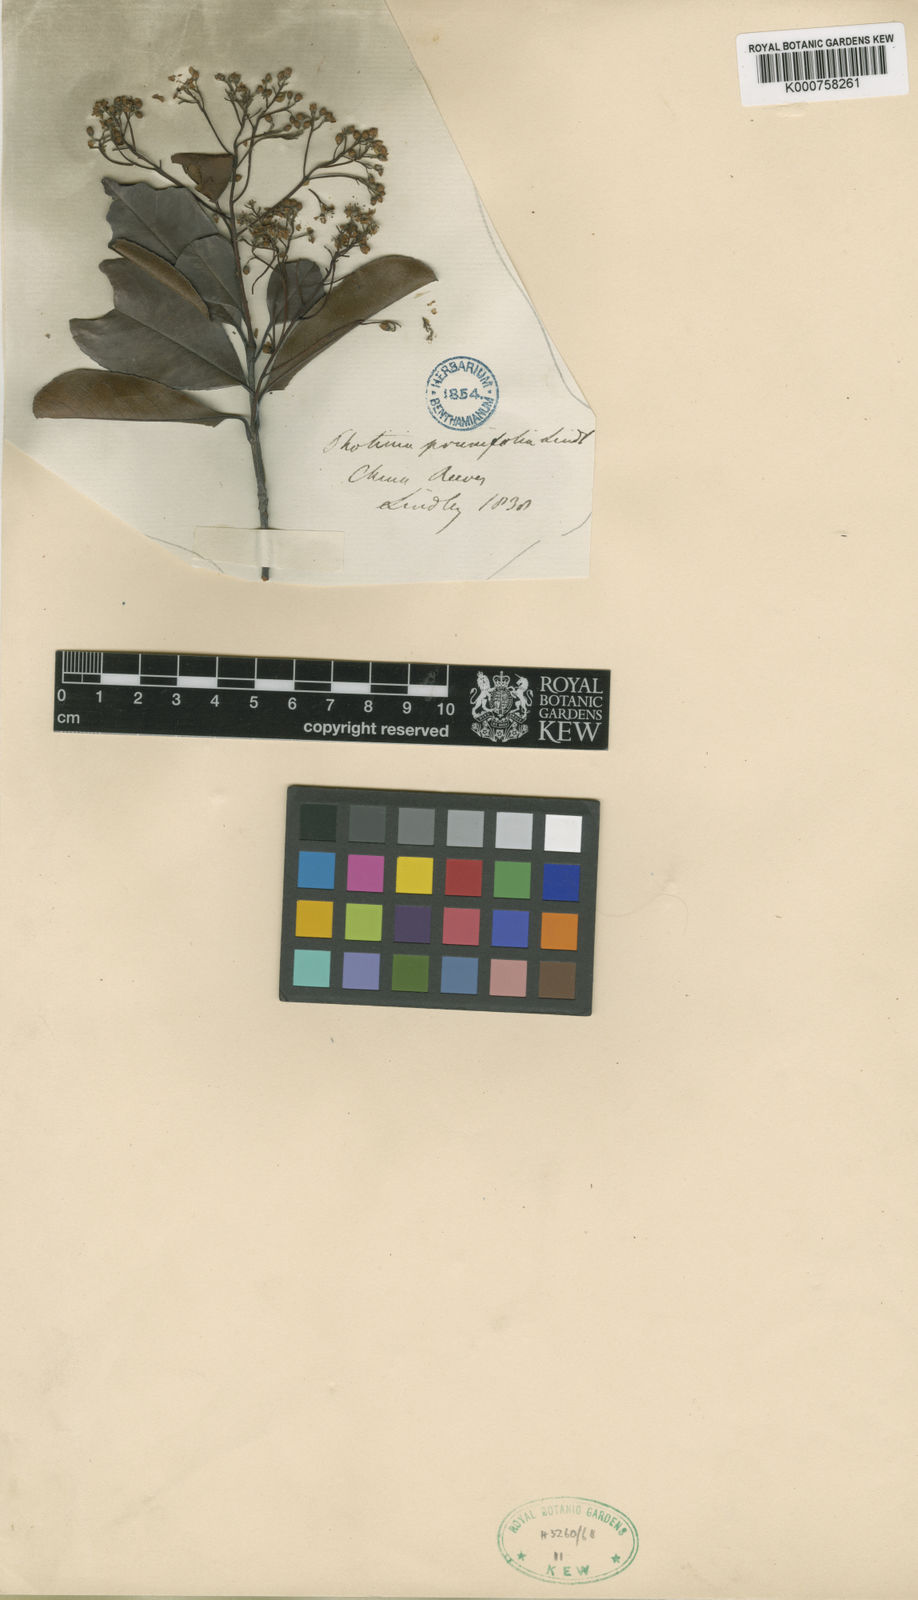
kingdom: Plantae
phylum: Tracheophyta
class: Magnoliopsida
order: Rosales
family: Rosaceae
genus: Photinia
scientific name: Photinia prunifolia
